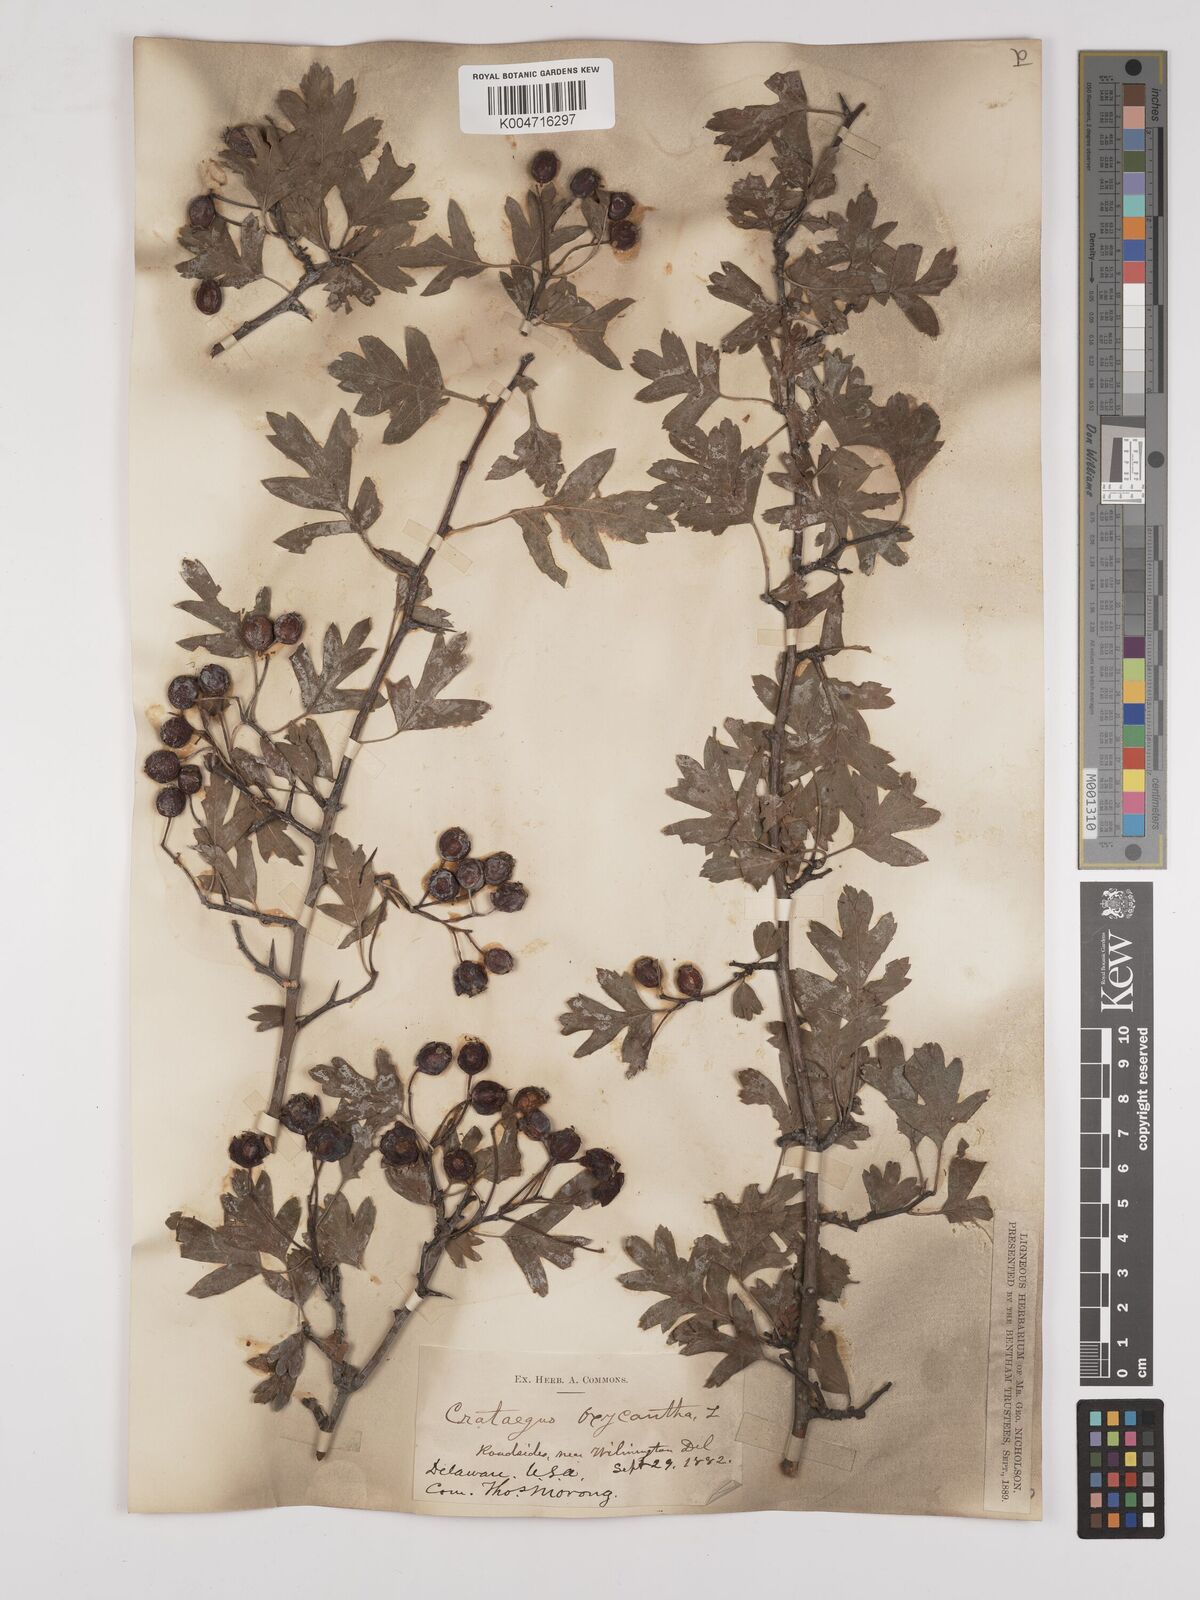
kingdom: Plantae
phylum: Tracheophyta
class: Magnoliopsida
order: Rosales
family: Rosaceae
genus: Crataegus
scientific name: Crataegus monogyna
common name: Hawthorn
